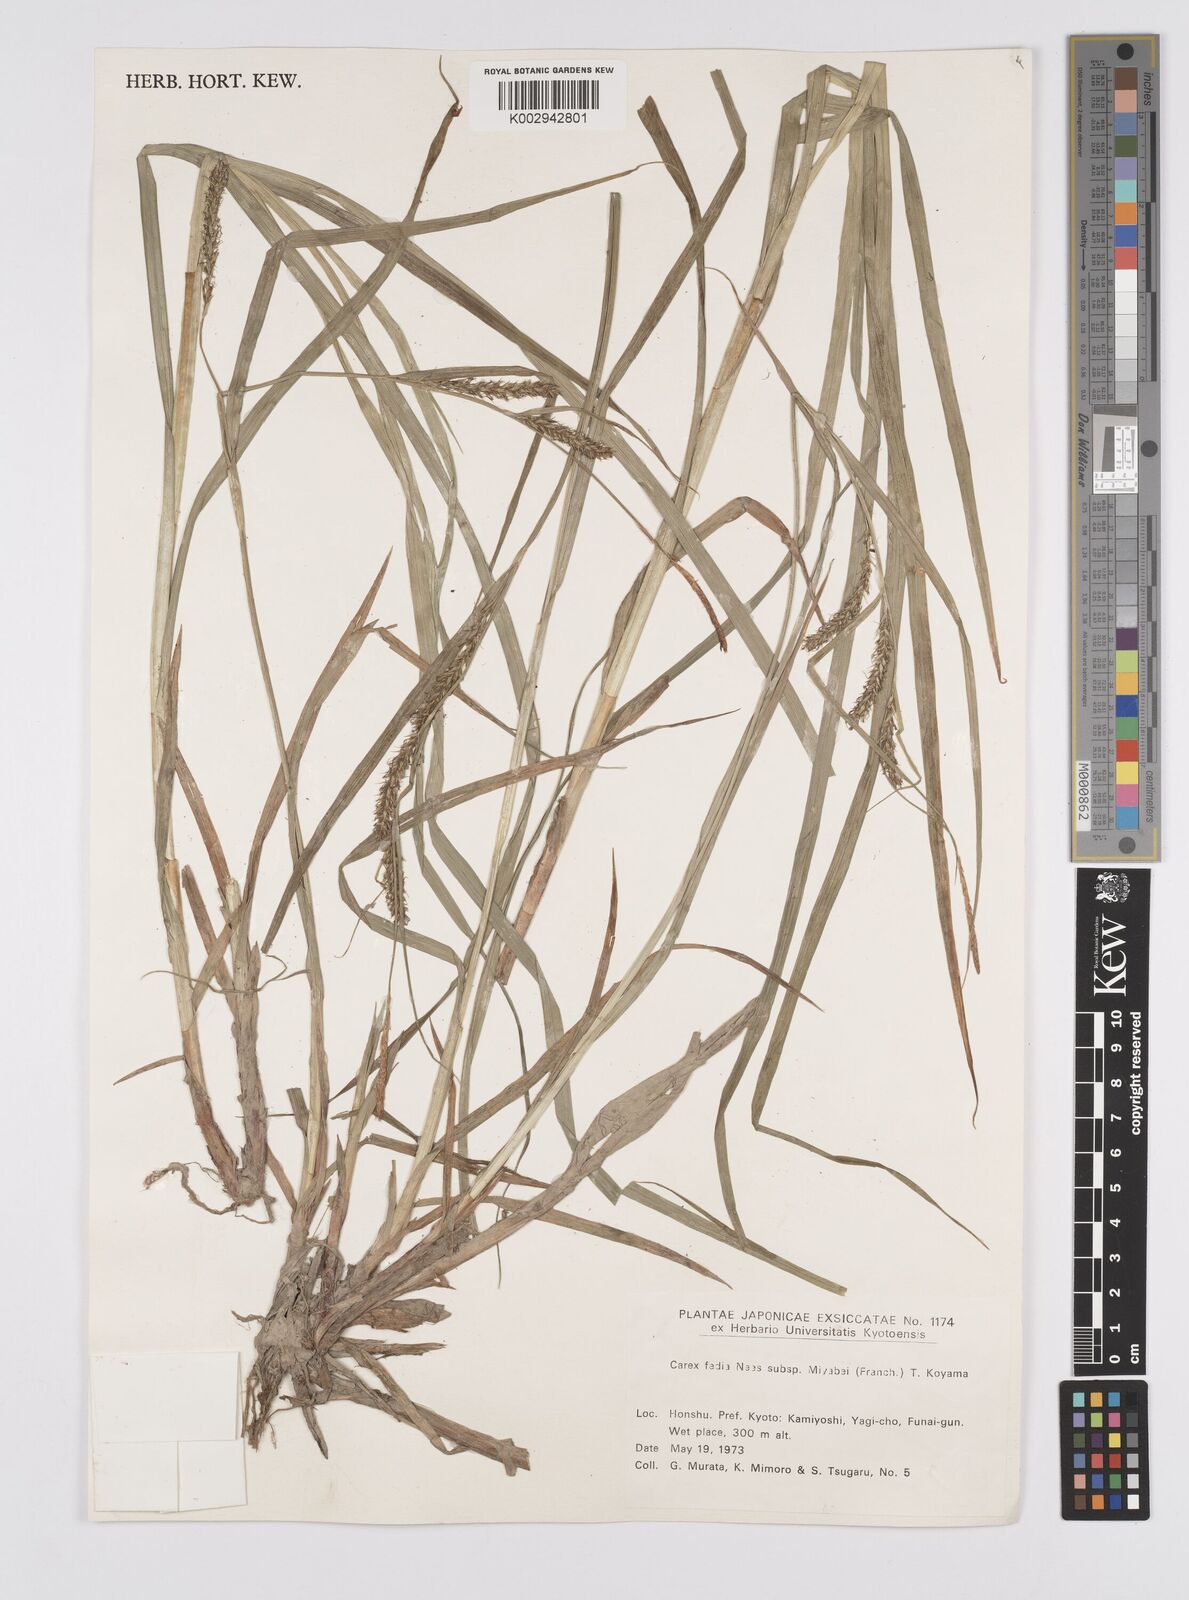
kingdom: Plantae
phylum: Tracheophyta
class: Liliopsida
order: Poales
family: Cyperaceae
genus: Carex
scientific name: Carex fedia
